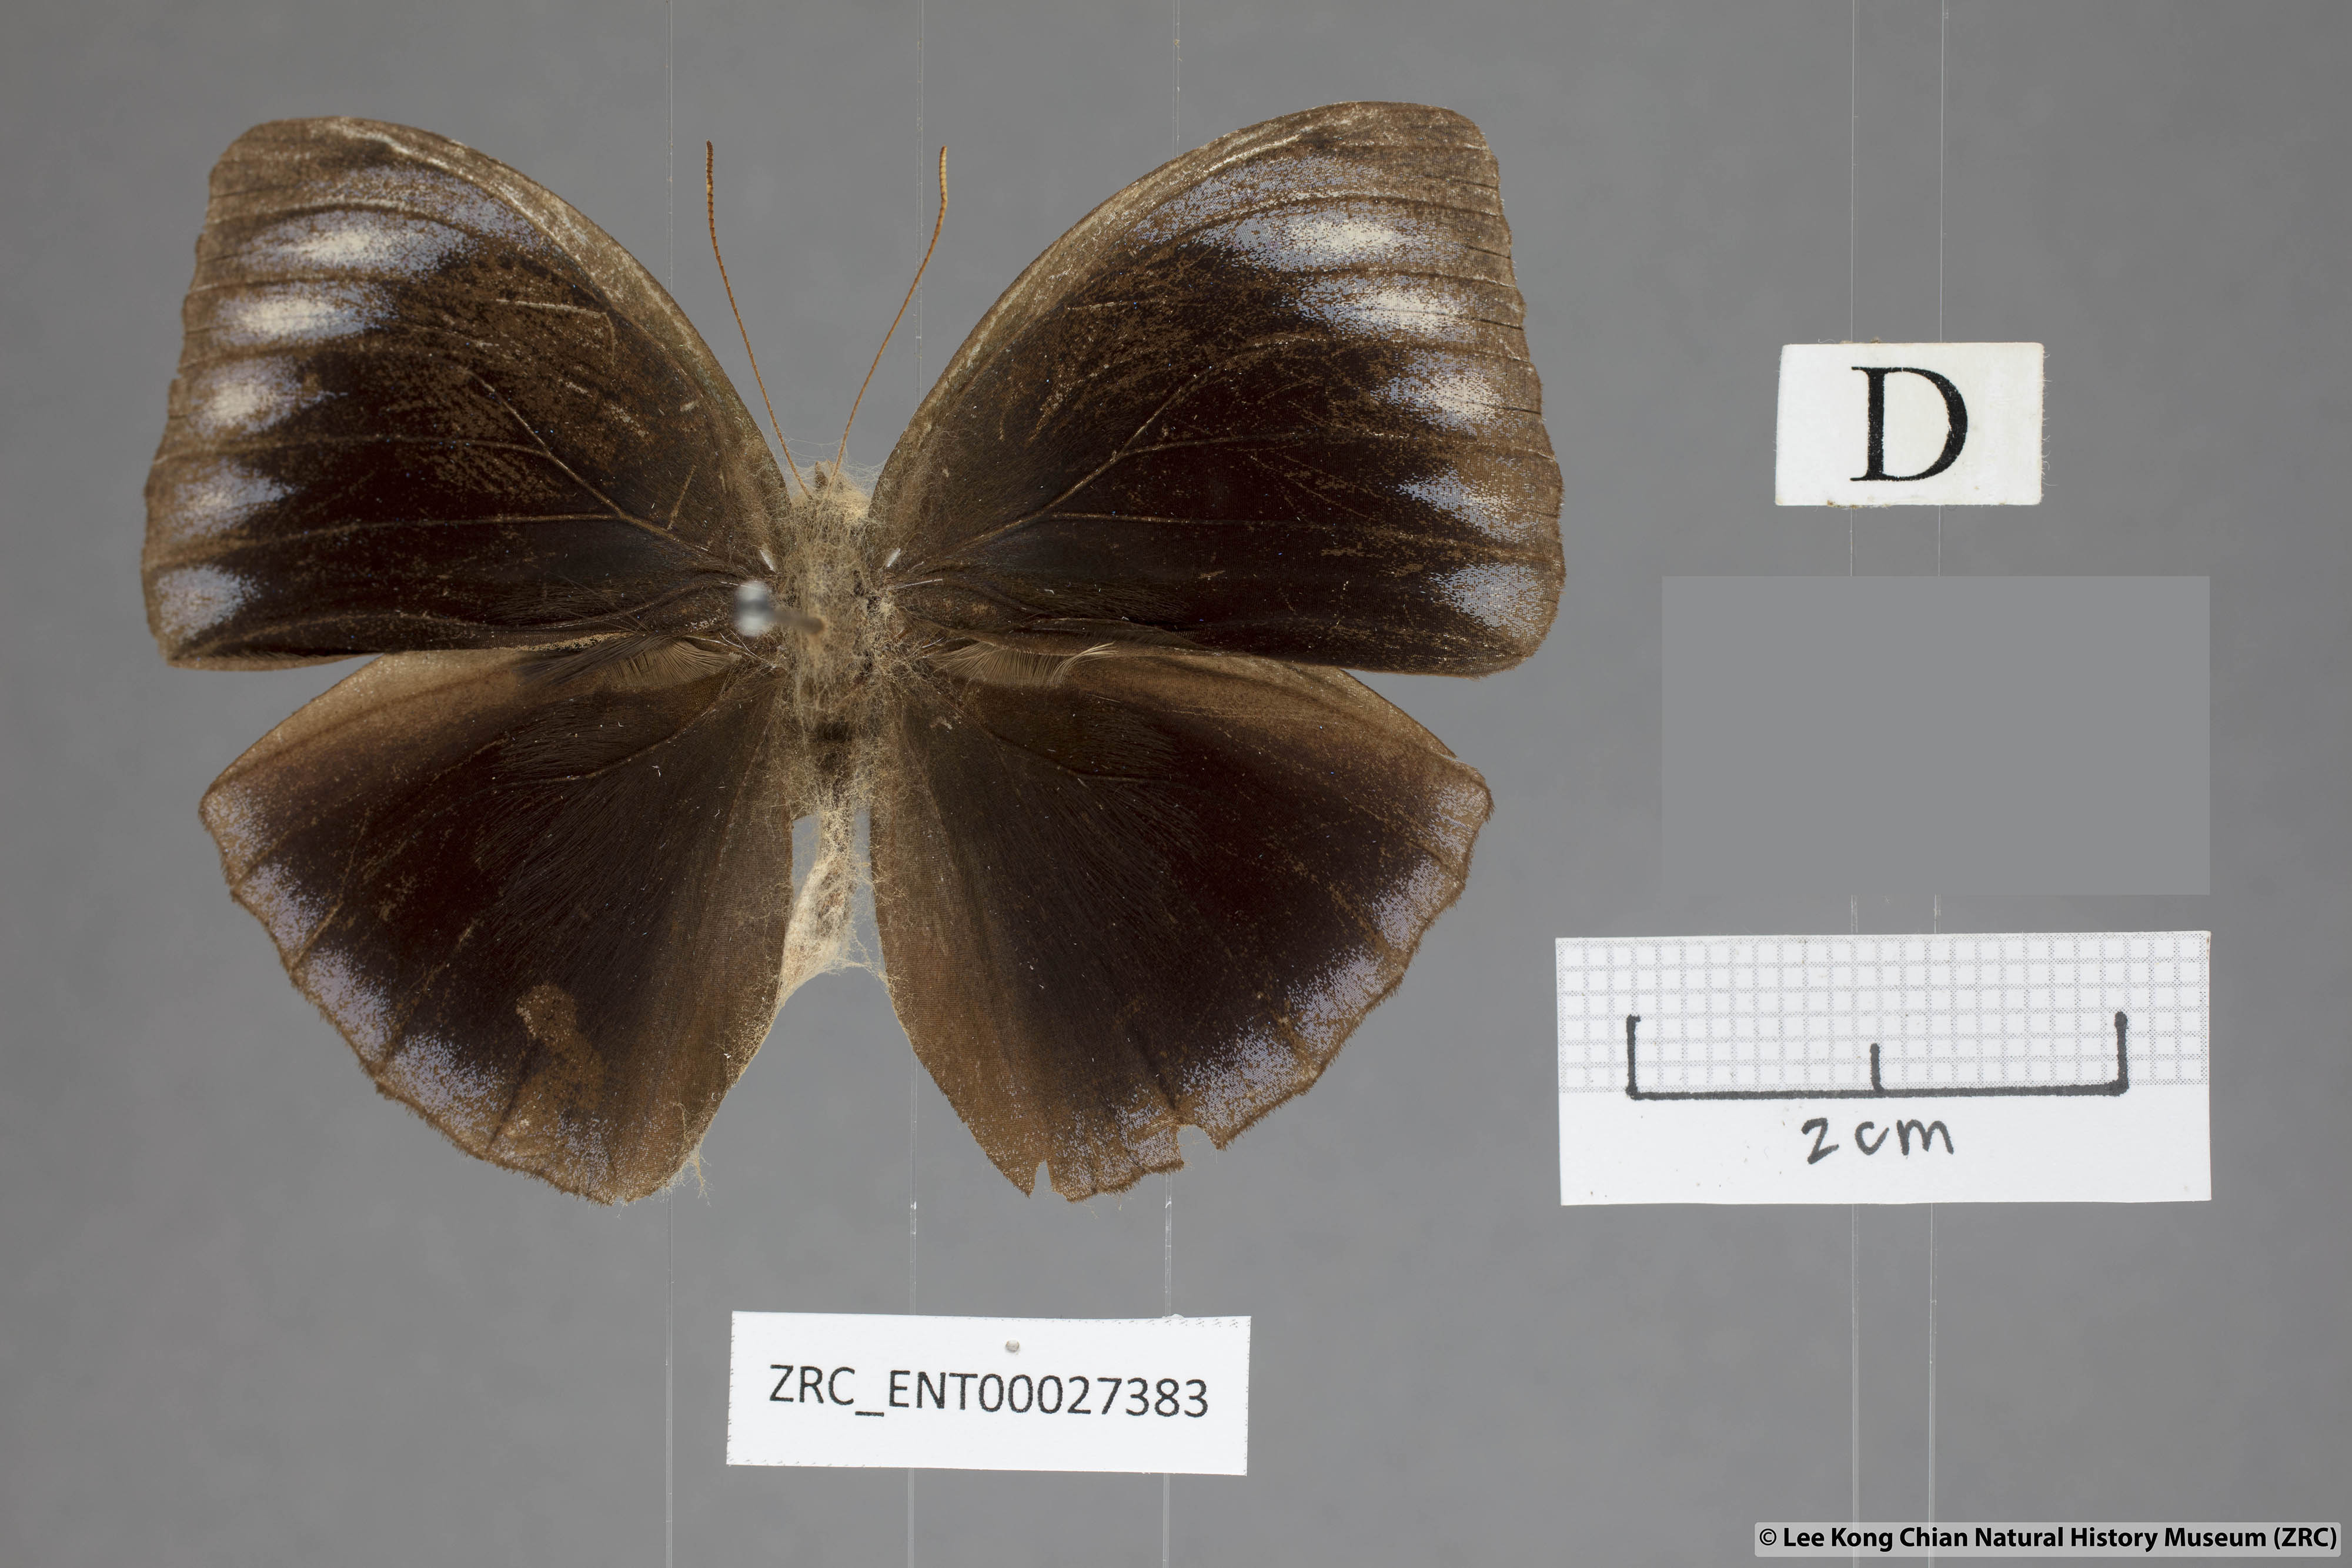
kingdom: Animalia
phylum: Arthropoda
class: Insecta
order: Lepidoptera
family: Nymphalidae
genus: Elymnias
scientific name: Elymnias esaca
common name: Green palmfly
